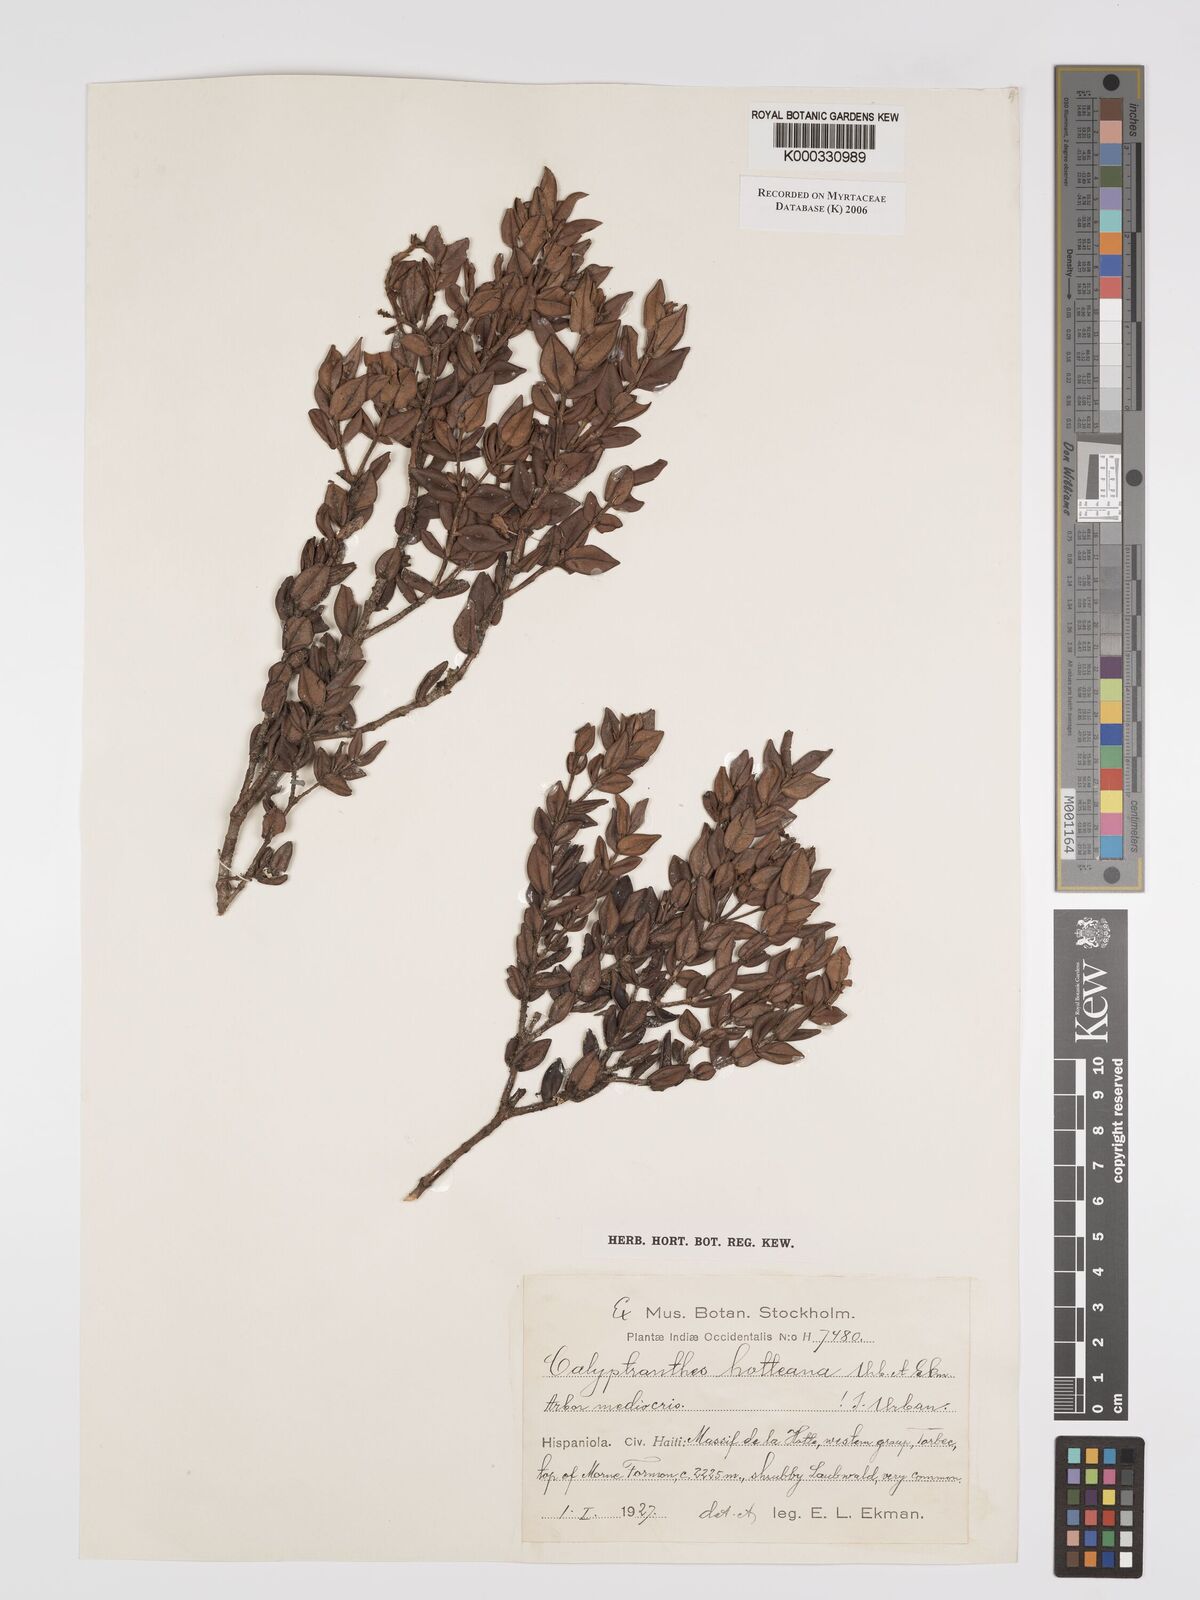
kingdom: Plantae
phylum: Tracheophyta
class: Magnoliopsida
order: Myrtales
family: Myrtaceae
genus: Myrcia
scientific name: Myrcia neohotteana
